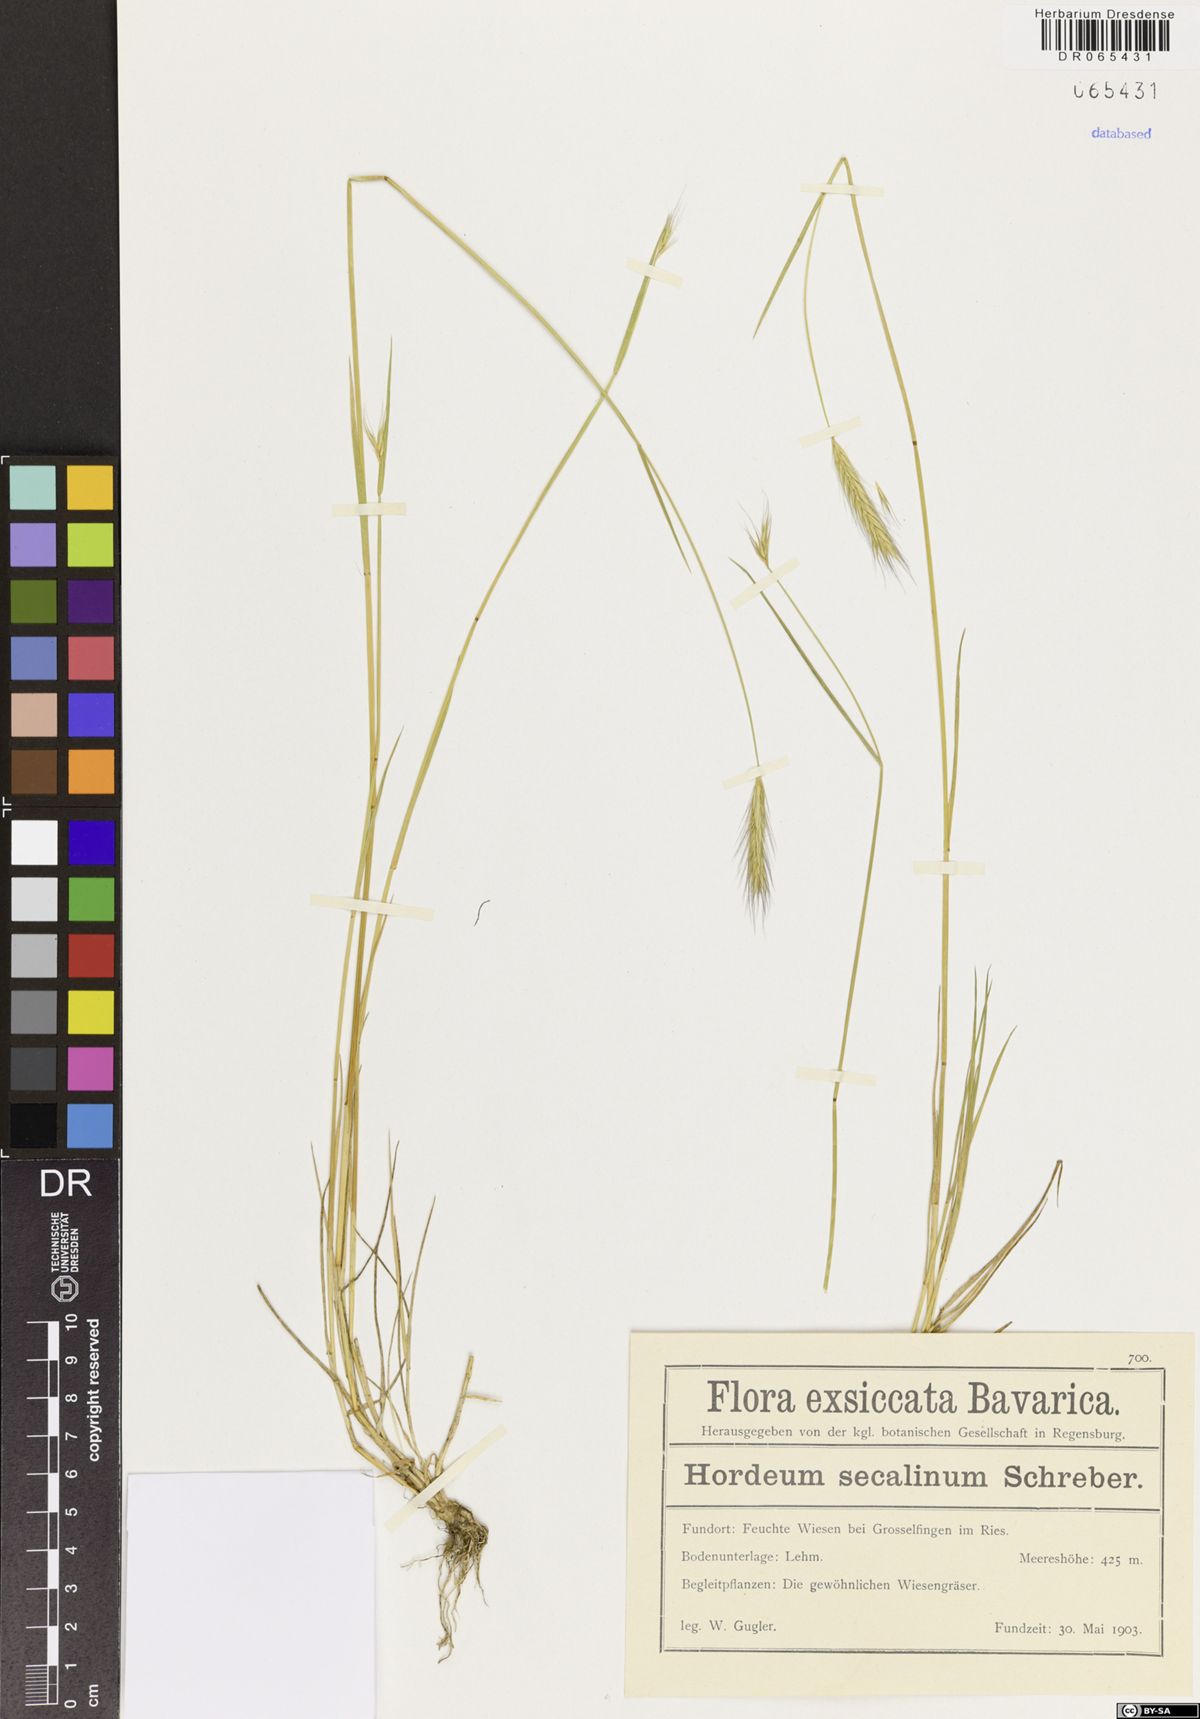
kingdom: Plantae
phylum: Tracheophyta
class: Liliopsida
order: Poales
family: Poaceae
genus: Hordeum
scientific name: Hordeum secalinum
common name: Meadow barley
